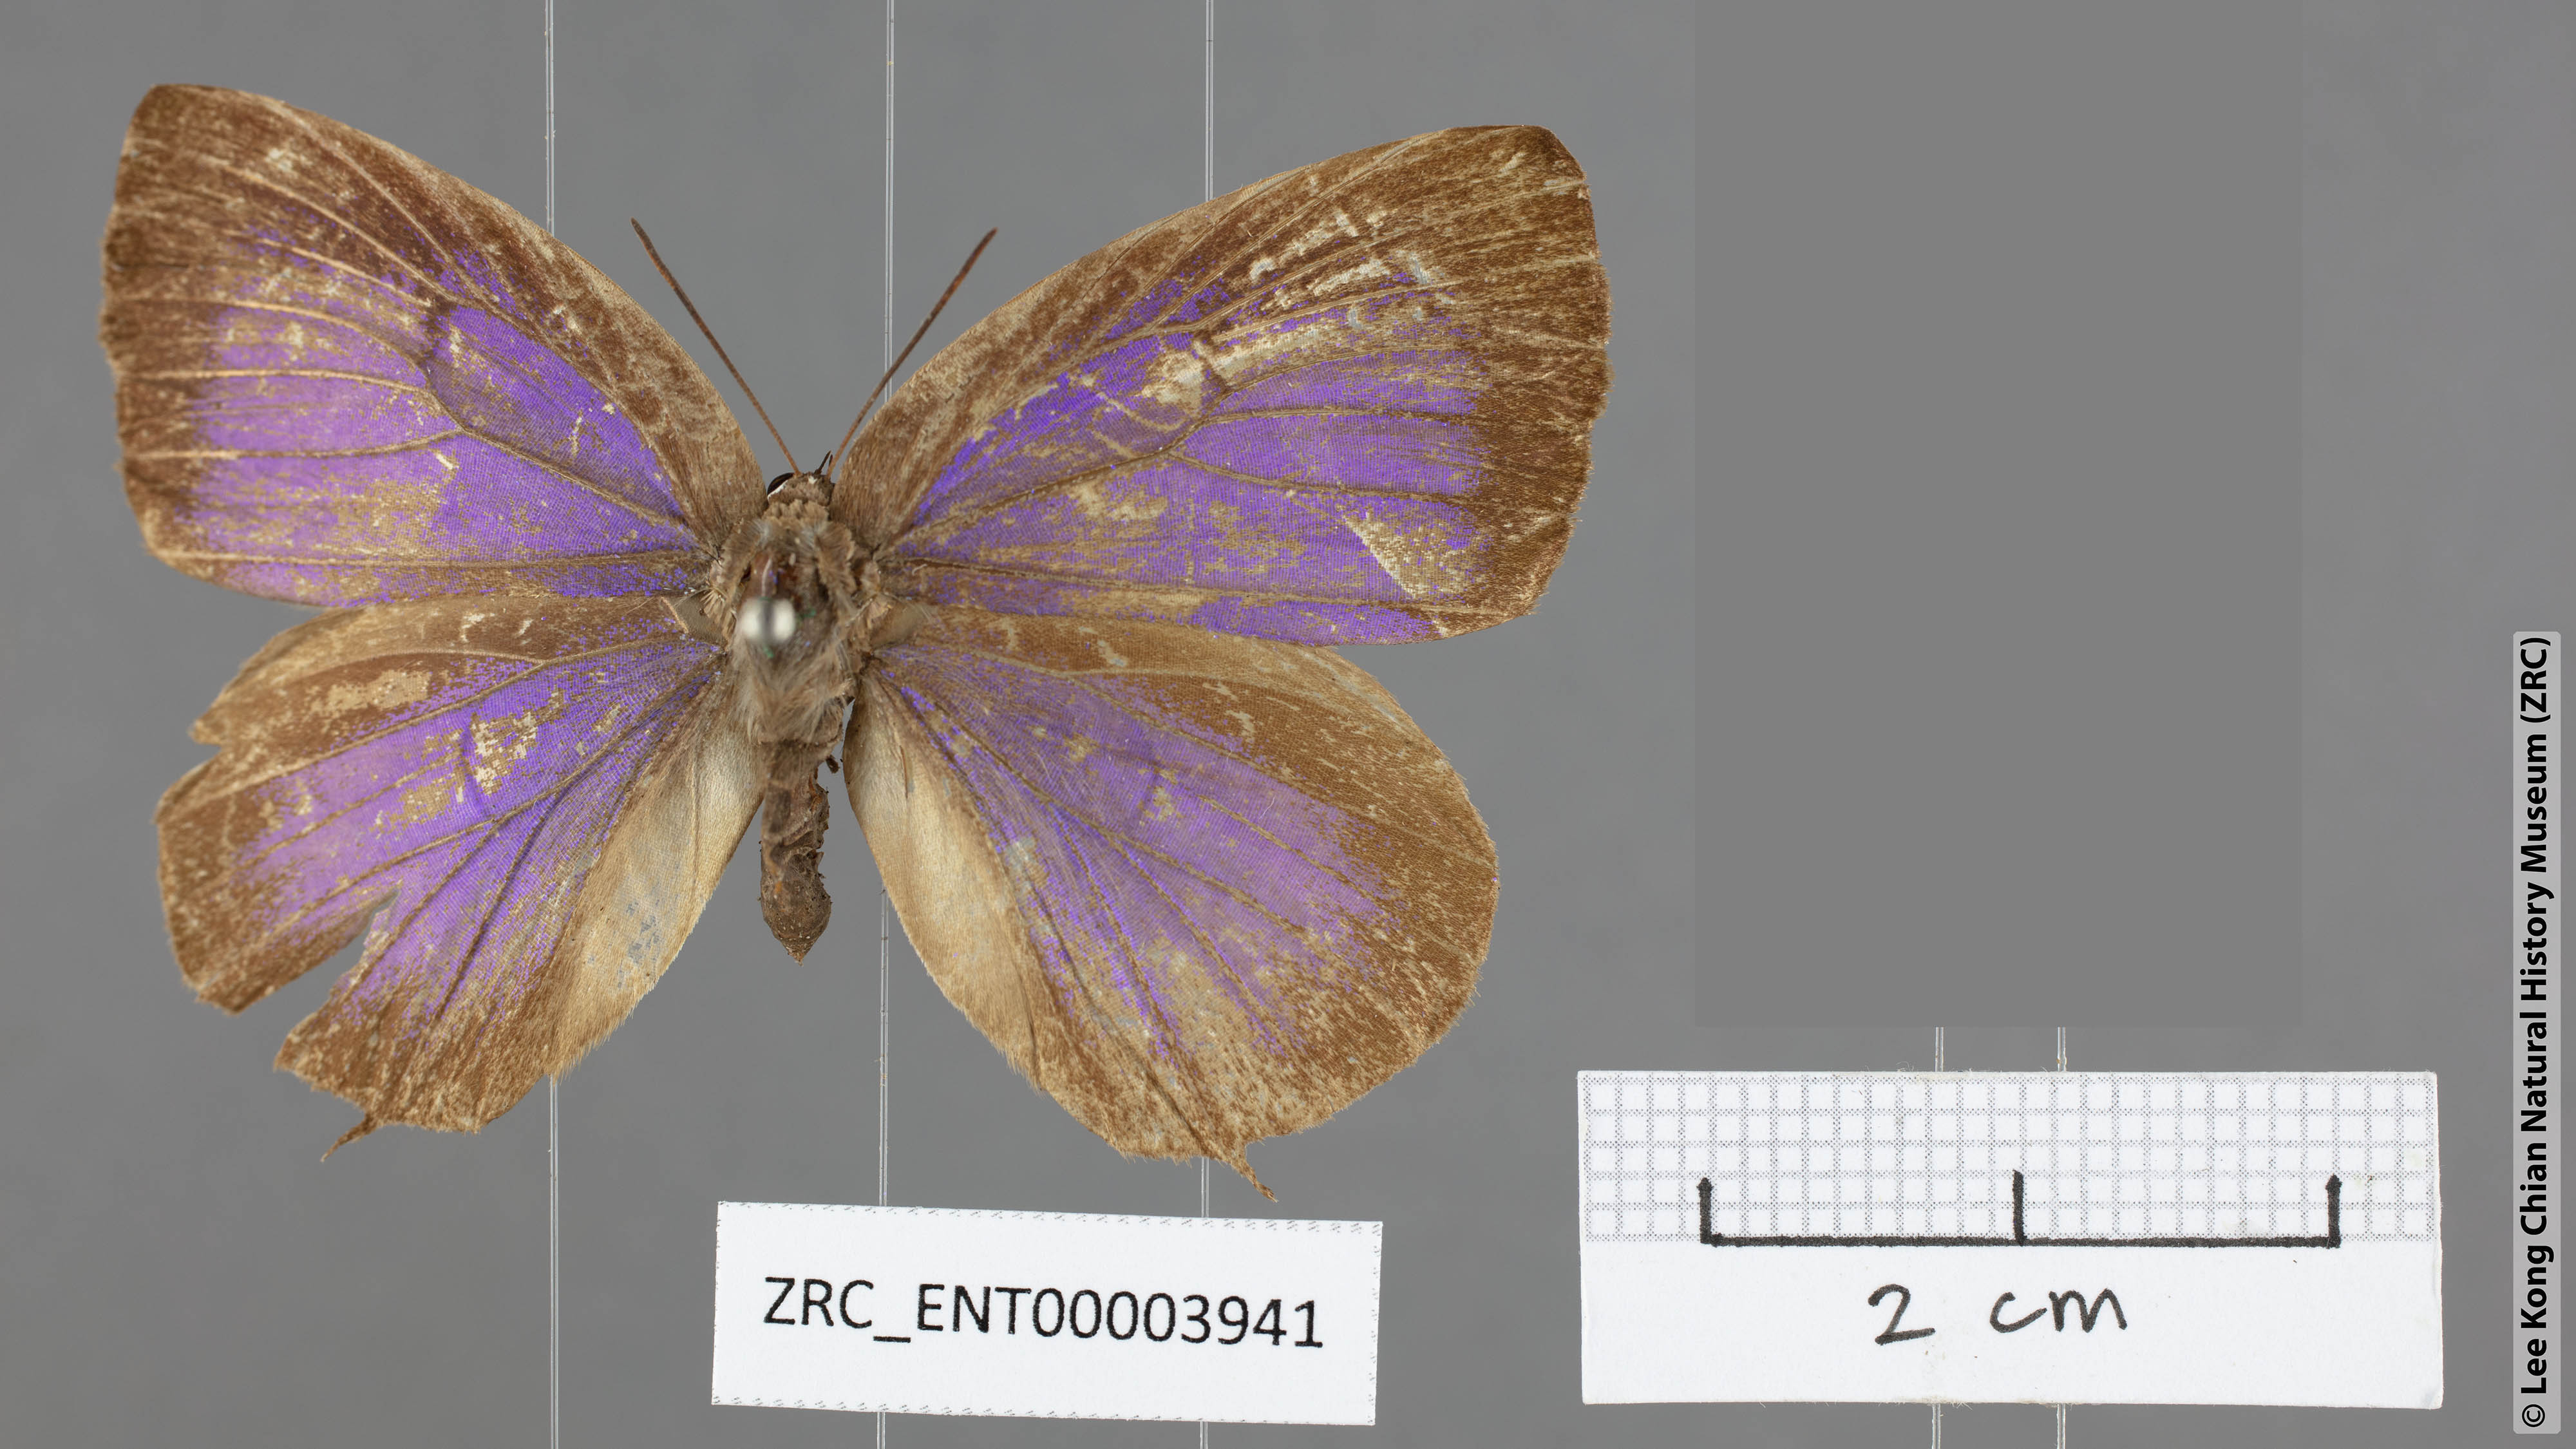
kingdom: Animalia
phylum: Arthropoda
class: Insecta
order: Lepidoptera
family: Lycaenidae
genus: Arhopala
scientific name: Arhopala hellada
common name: Long-banded oakblue
